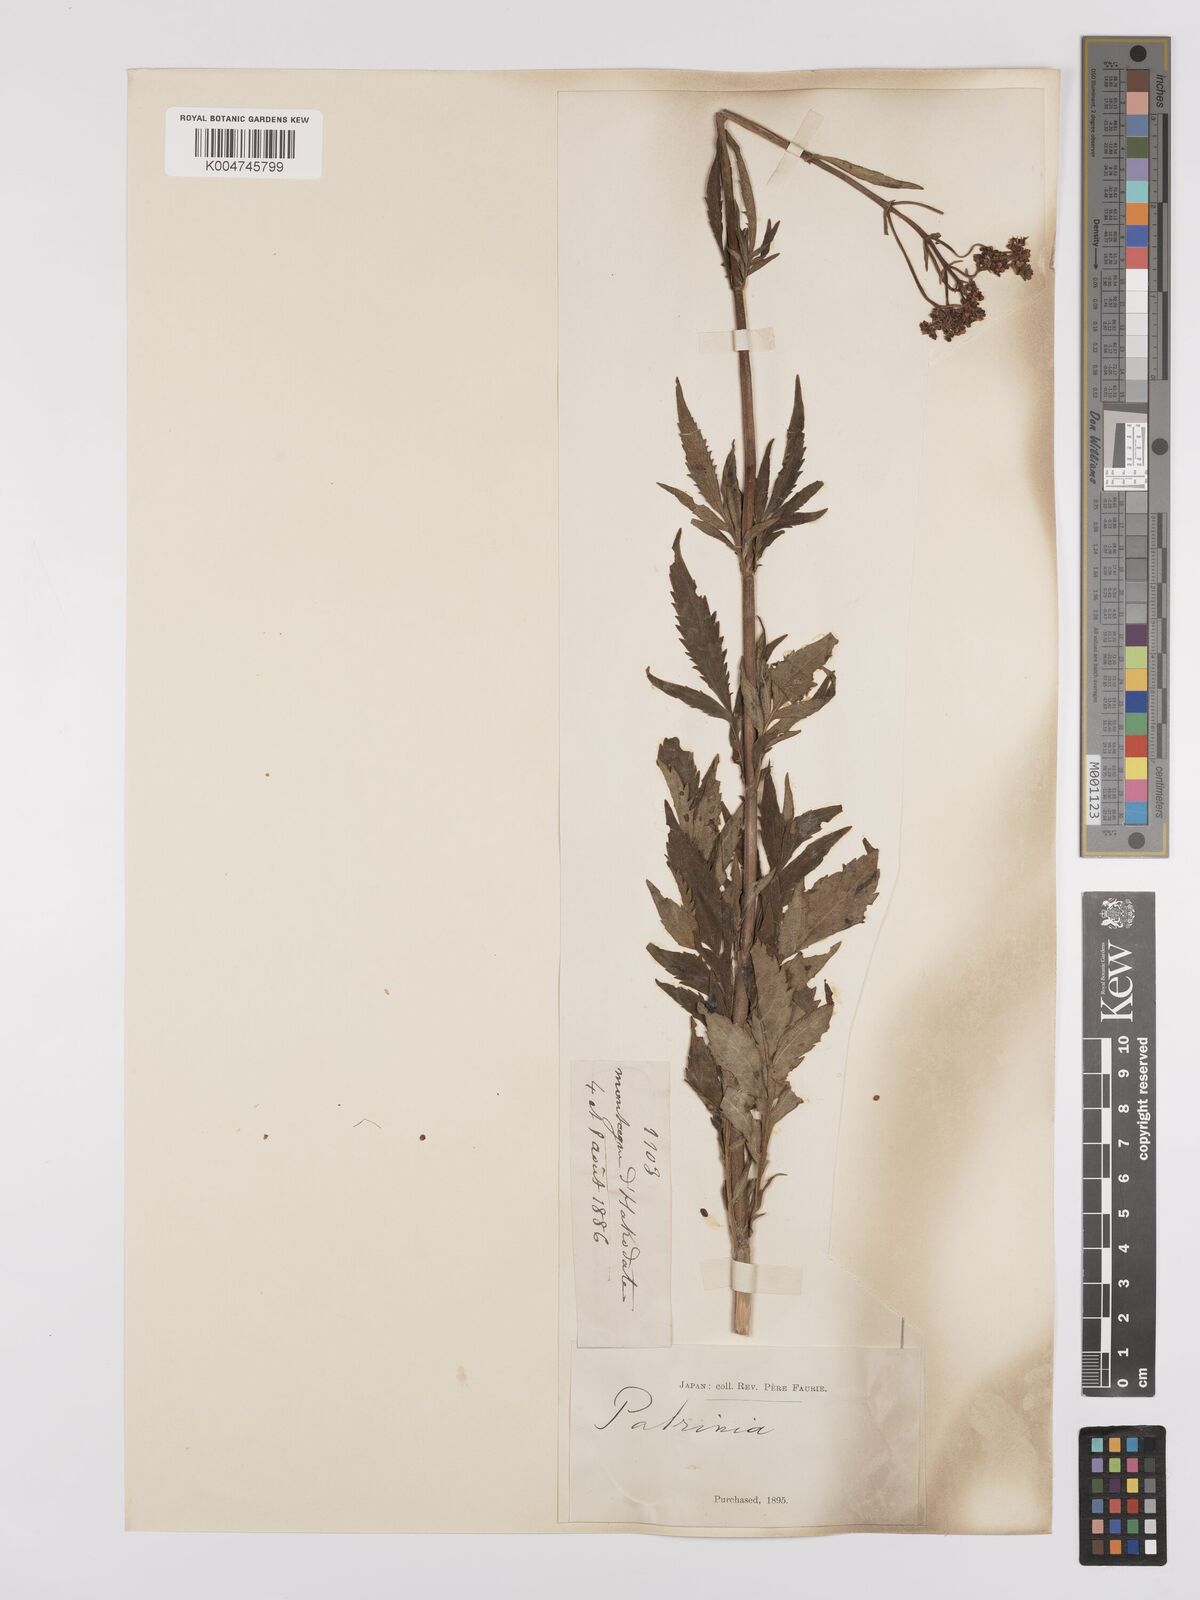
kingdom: Plantae
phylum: Tracheophyta
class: Magnoliopsida
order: Dipsacales
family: Caprifoliaceae
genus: Patrinia
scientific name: Patrinia scabiosifolia
